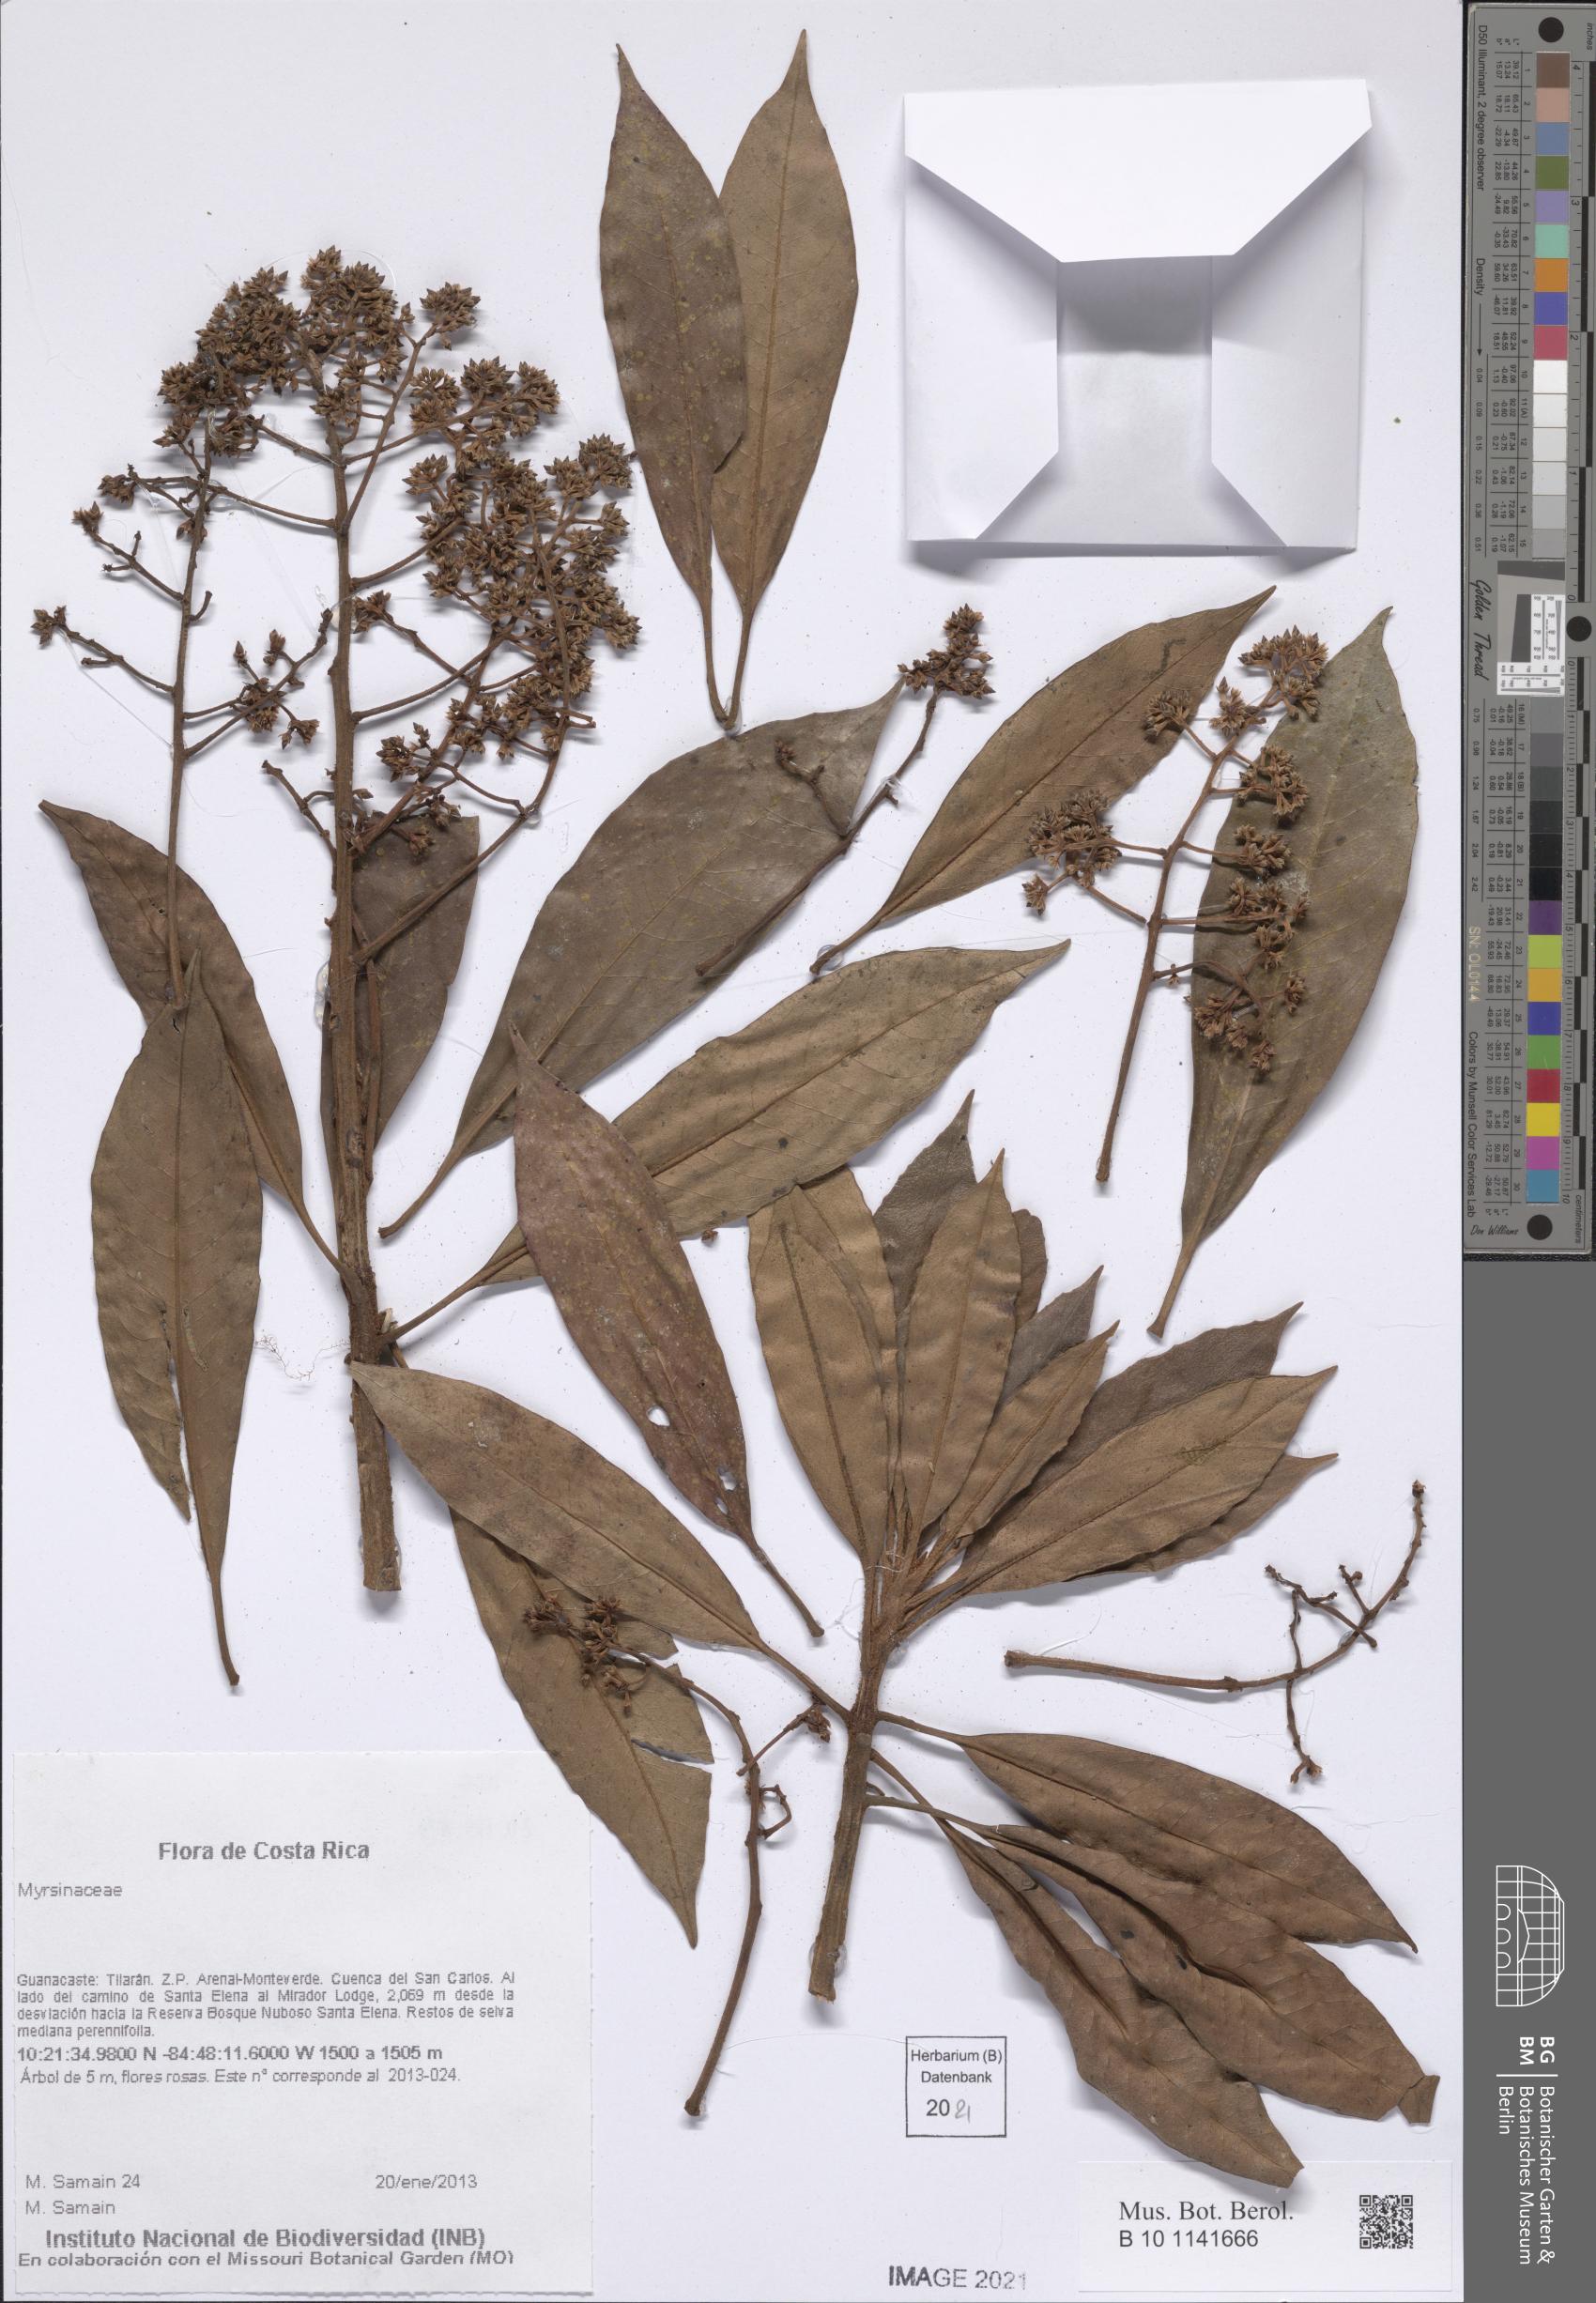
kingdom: Plantae
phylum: Tracheophyta
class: Magnoliopsida
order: Ericales
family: Primulaceae
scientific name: Primulaceae
